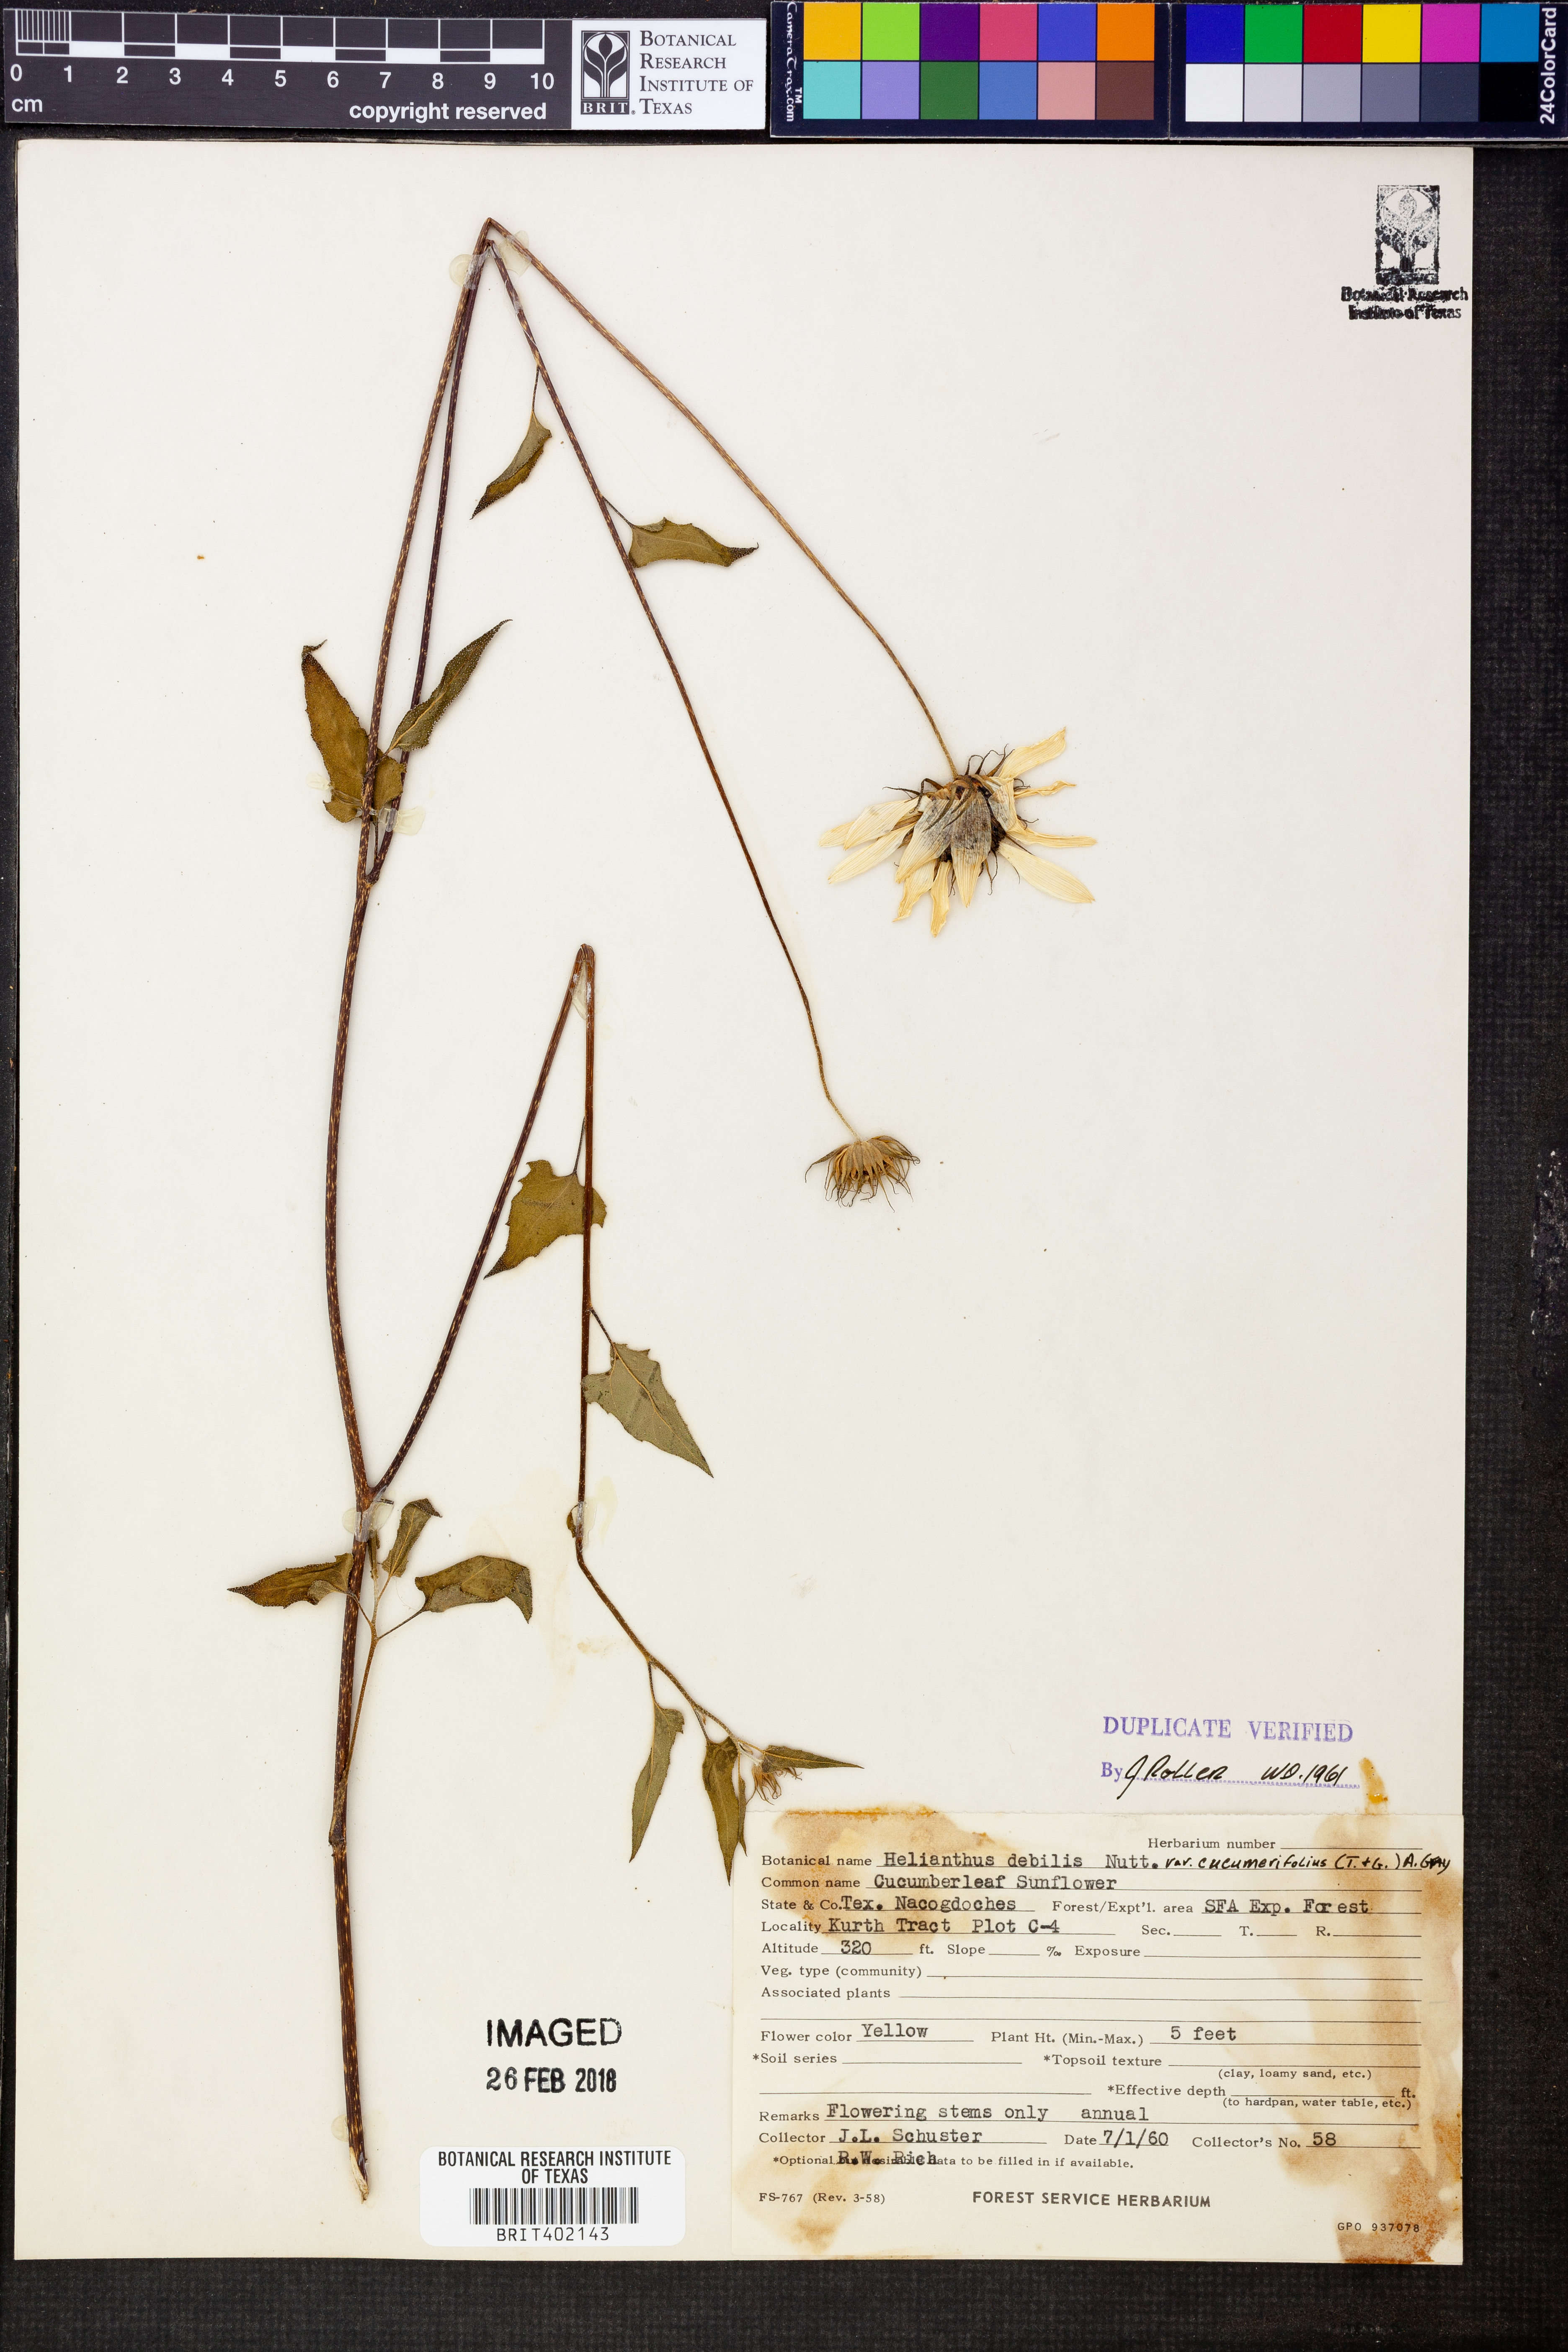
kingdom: Plantae
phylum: Tracheophyta
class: Magnoliopsida
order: Asterales
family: Asteraceae
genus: Helianthus
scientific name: Helianthus debilis
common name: Weak sunflower
